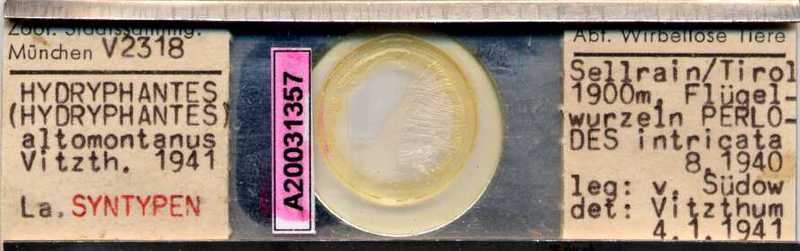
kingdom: Animalia
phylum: Arthropoda
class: Arachnida
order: Trombidiformes
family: Hydryphantidae
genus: Hydryphantes
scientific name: Hydryphantes
